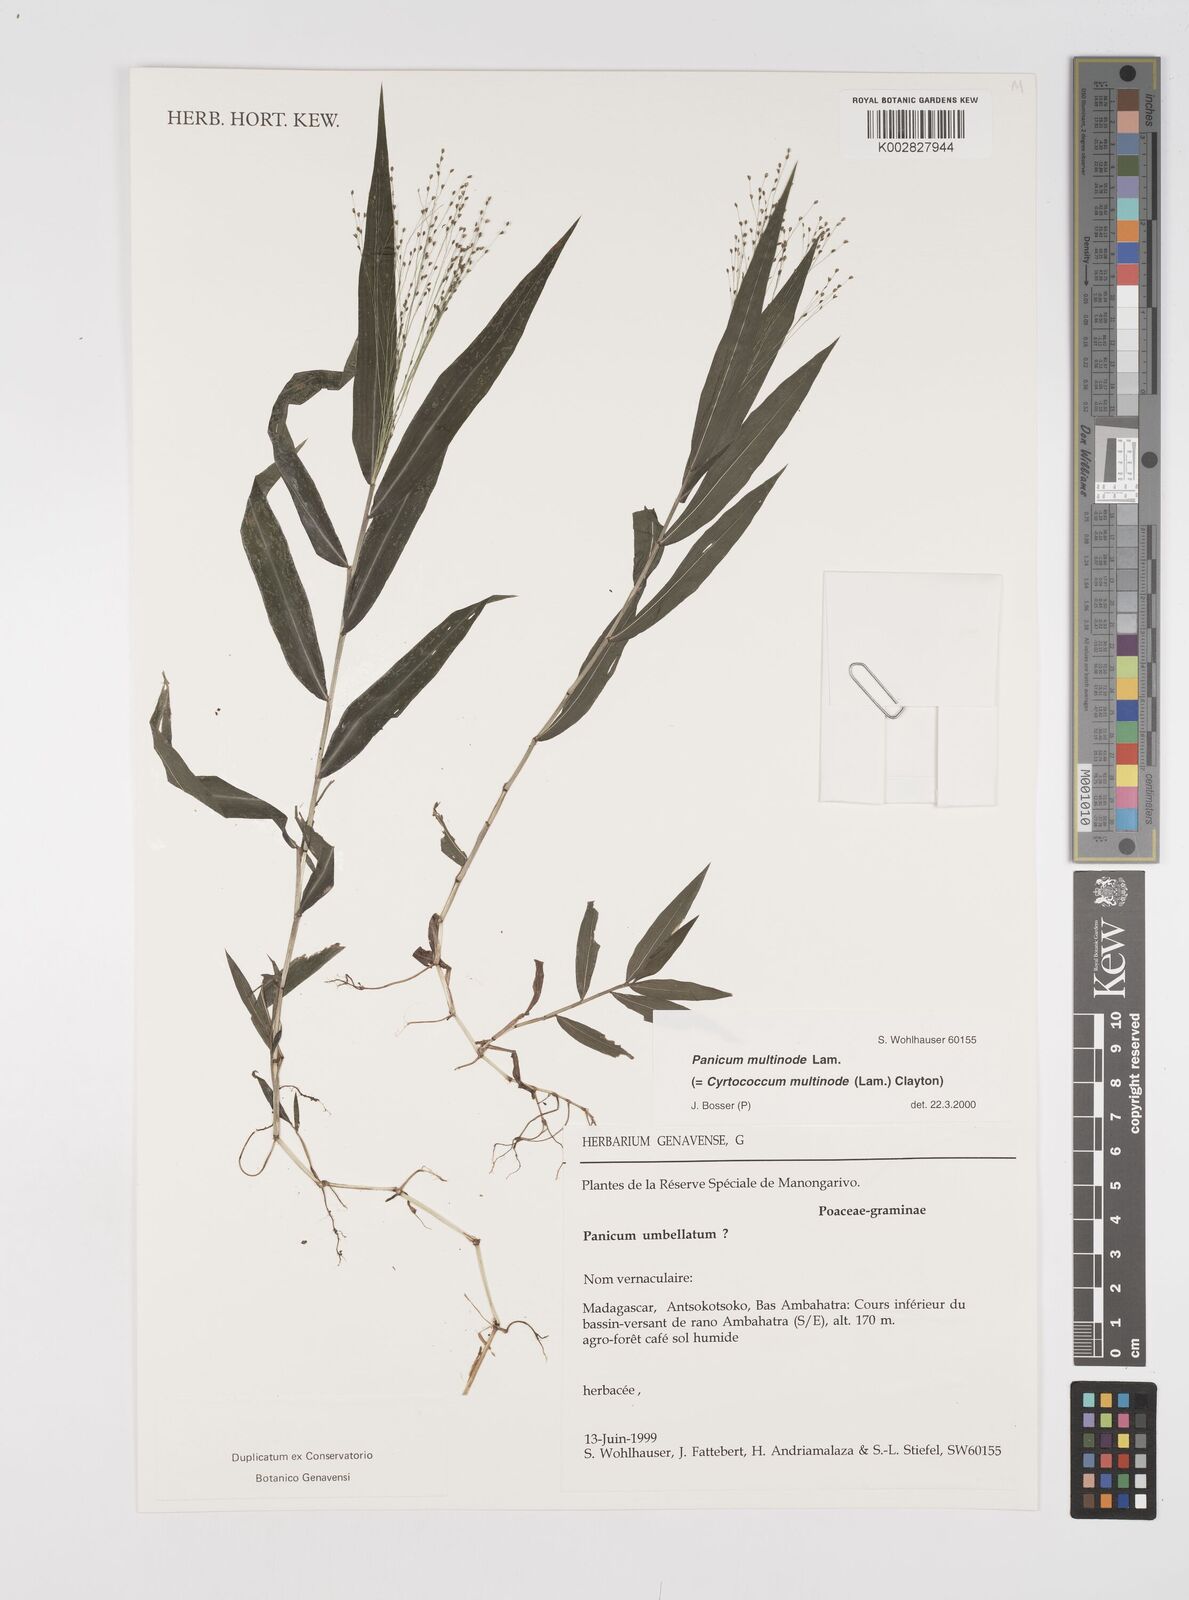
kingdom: Plantae
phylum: Tracheophyta
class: Liliopsida
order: Poales
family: Poaceae
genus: Cyrtococcum
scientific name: Cyrtococcum multinode
